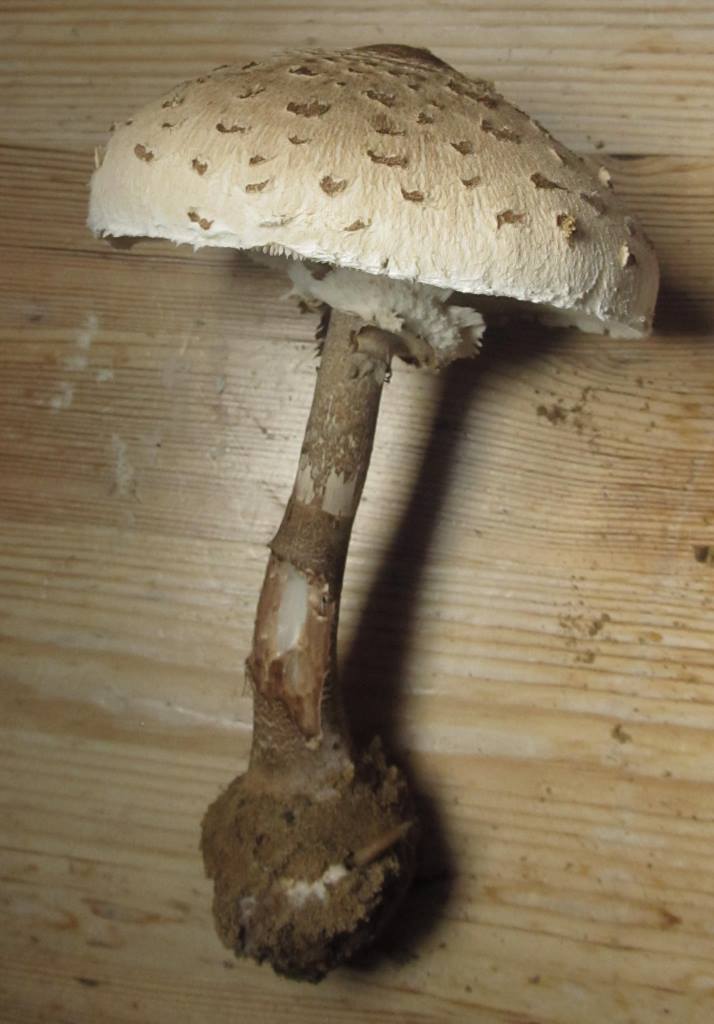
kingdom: Fungi
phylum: Basidiomycota
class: Agaricomycetes
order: Agaricales
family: Agaricaceae
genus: Macrolepiota
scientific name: Macrolepiota fuliginosa
